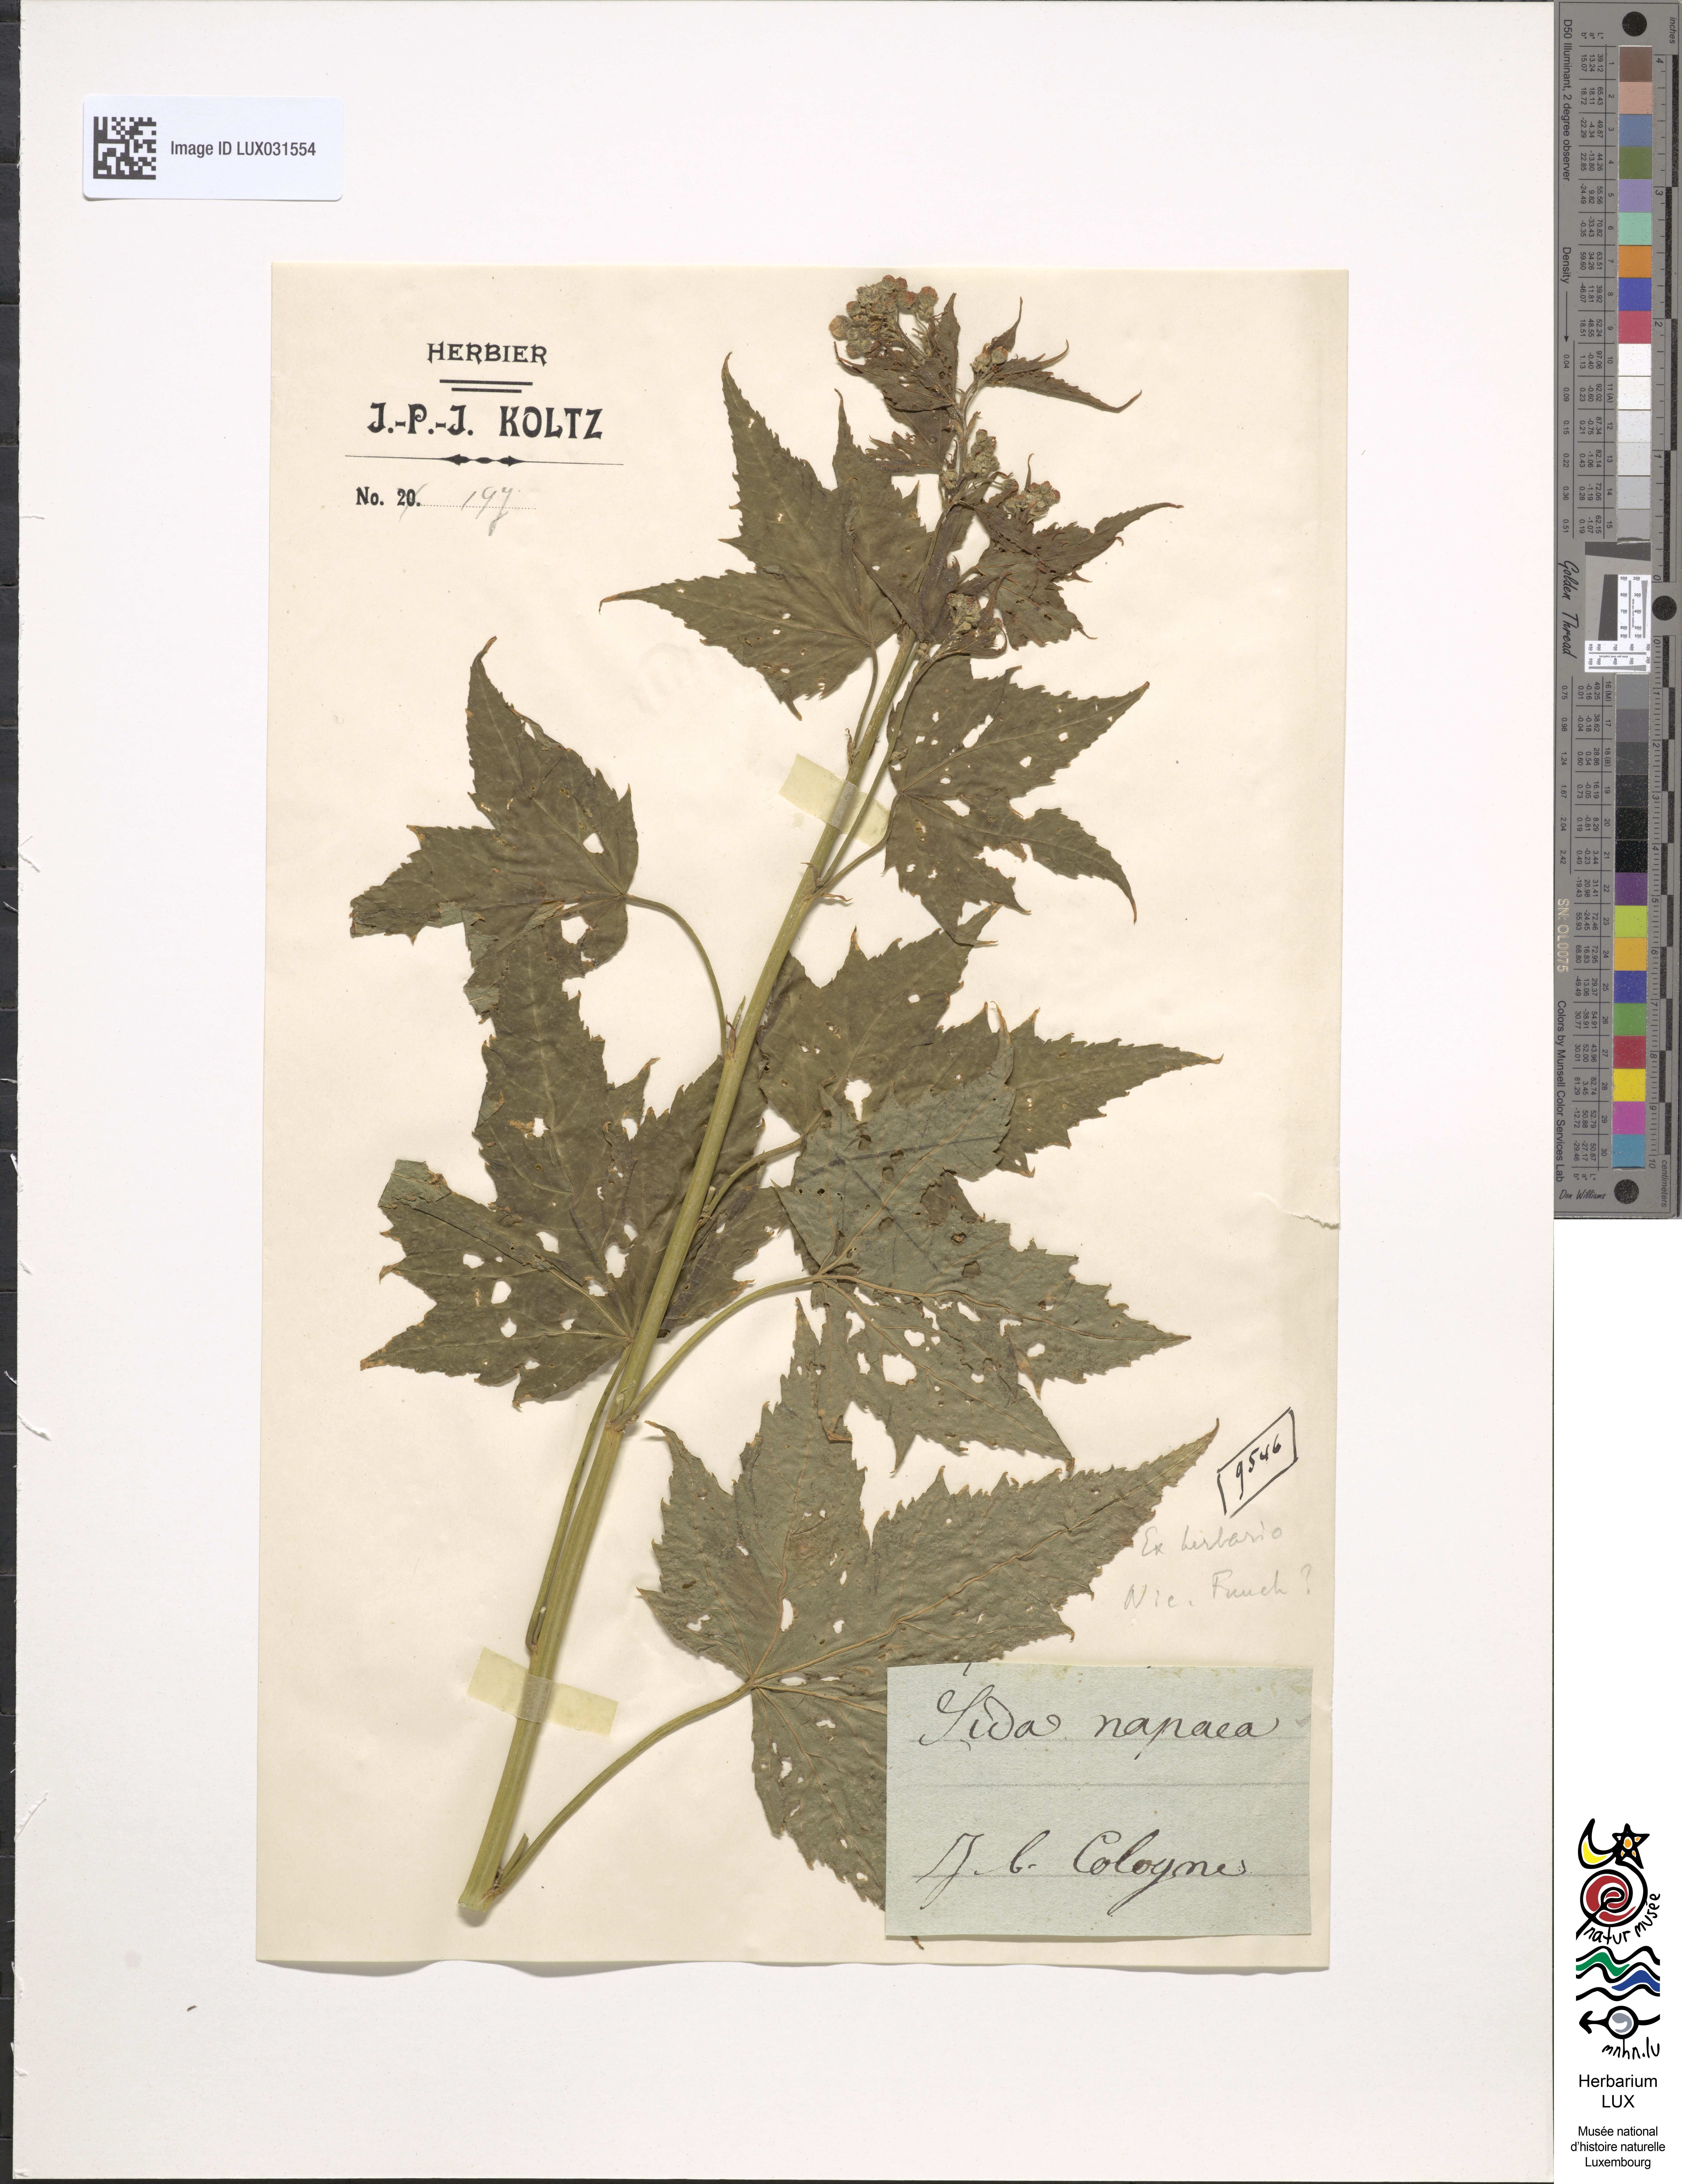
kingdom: Plantae
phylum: Tracheophyta
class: Magnoliopsida
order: Malvales
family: Malvaceae
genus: Ripariosida
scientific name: Ripariosida hermaphrodita
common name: Virginia fanpetals
